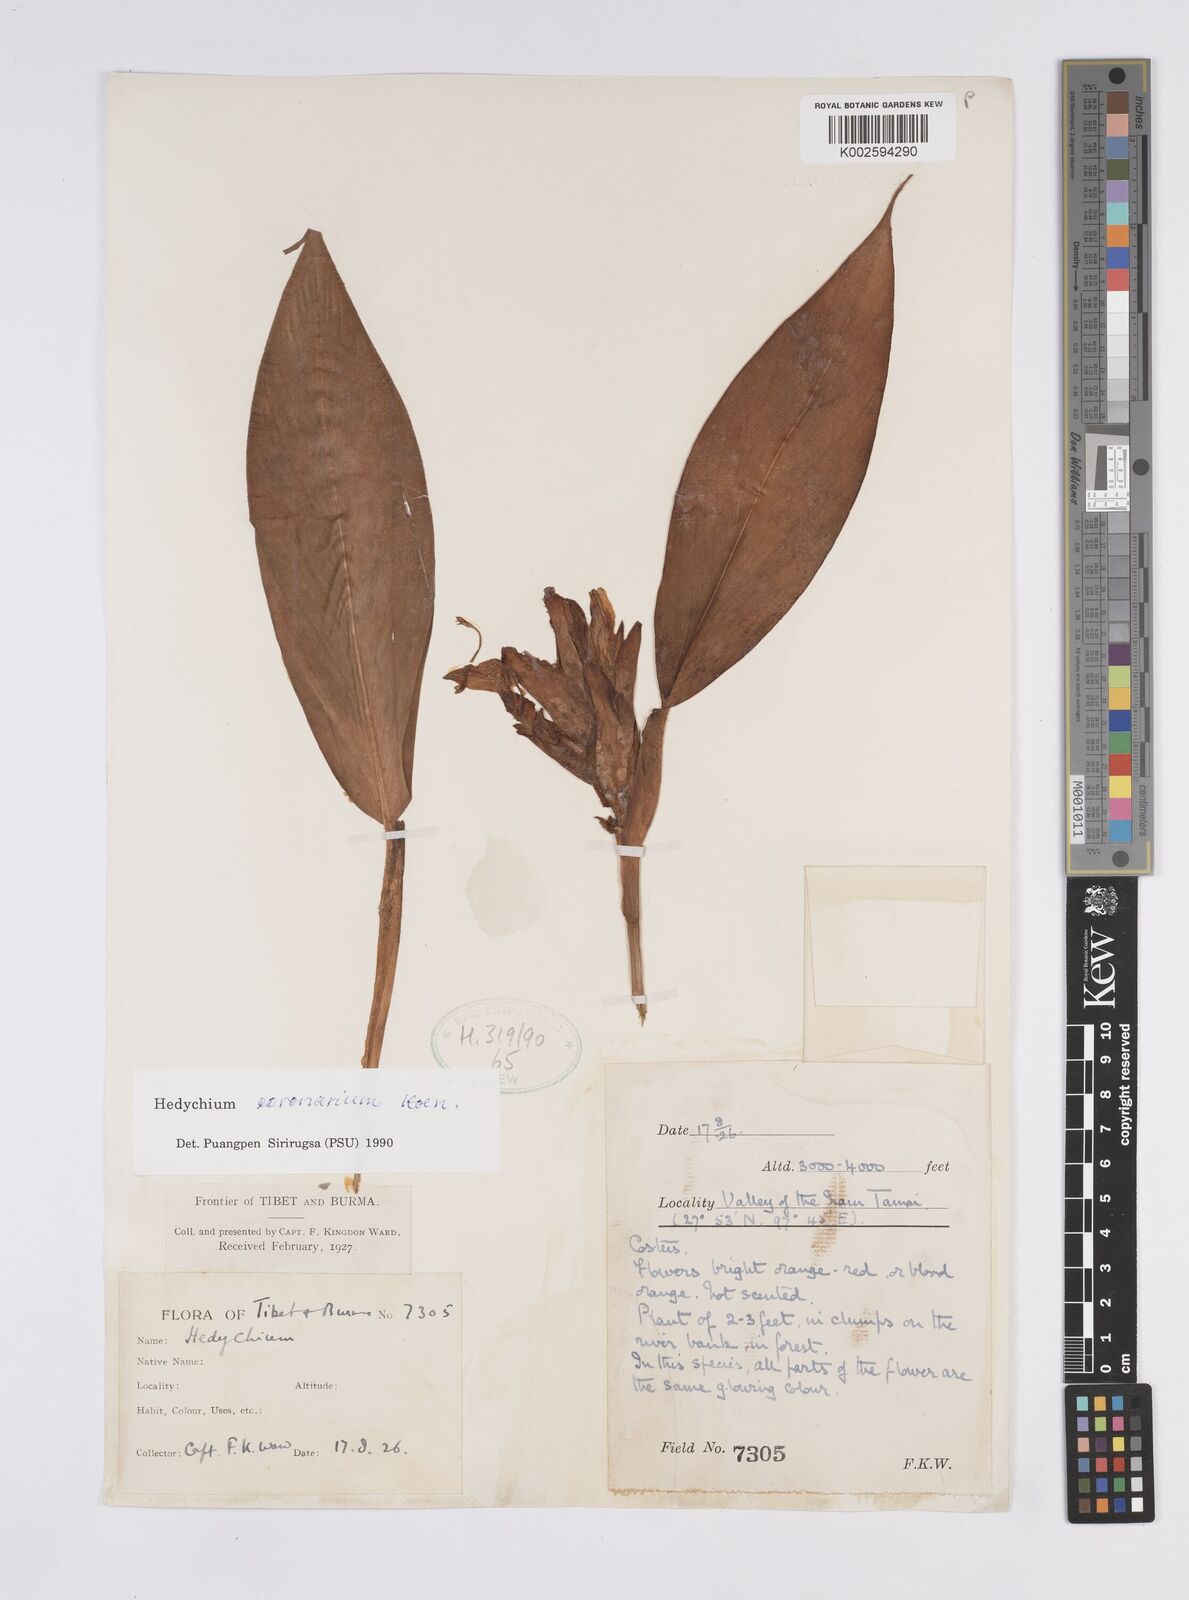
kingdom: Plantae
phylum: Tracheophyta
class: Liliopsida
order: Zingiberales
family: Zingiberaceae
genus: Hedychium
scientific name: Hedychium coronarium
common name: White garland-lily
